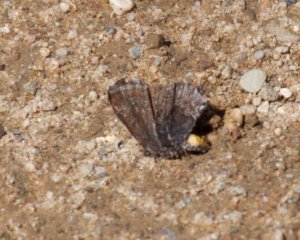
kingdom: Animalia
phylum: Arthropoda
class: Insecta
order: Lepidoptera
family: Lycaenidae
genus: Callophrys
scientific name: Callophrys polios
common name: Hoary Elfin
